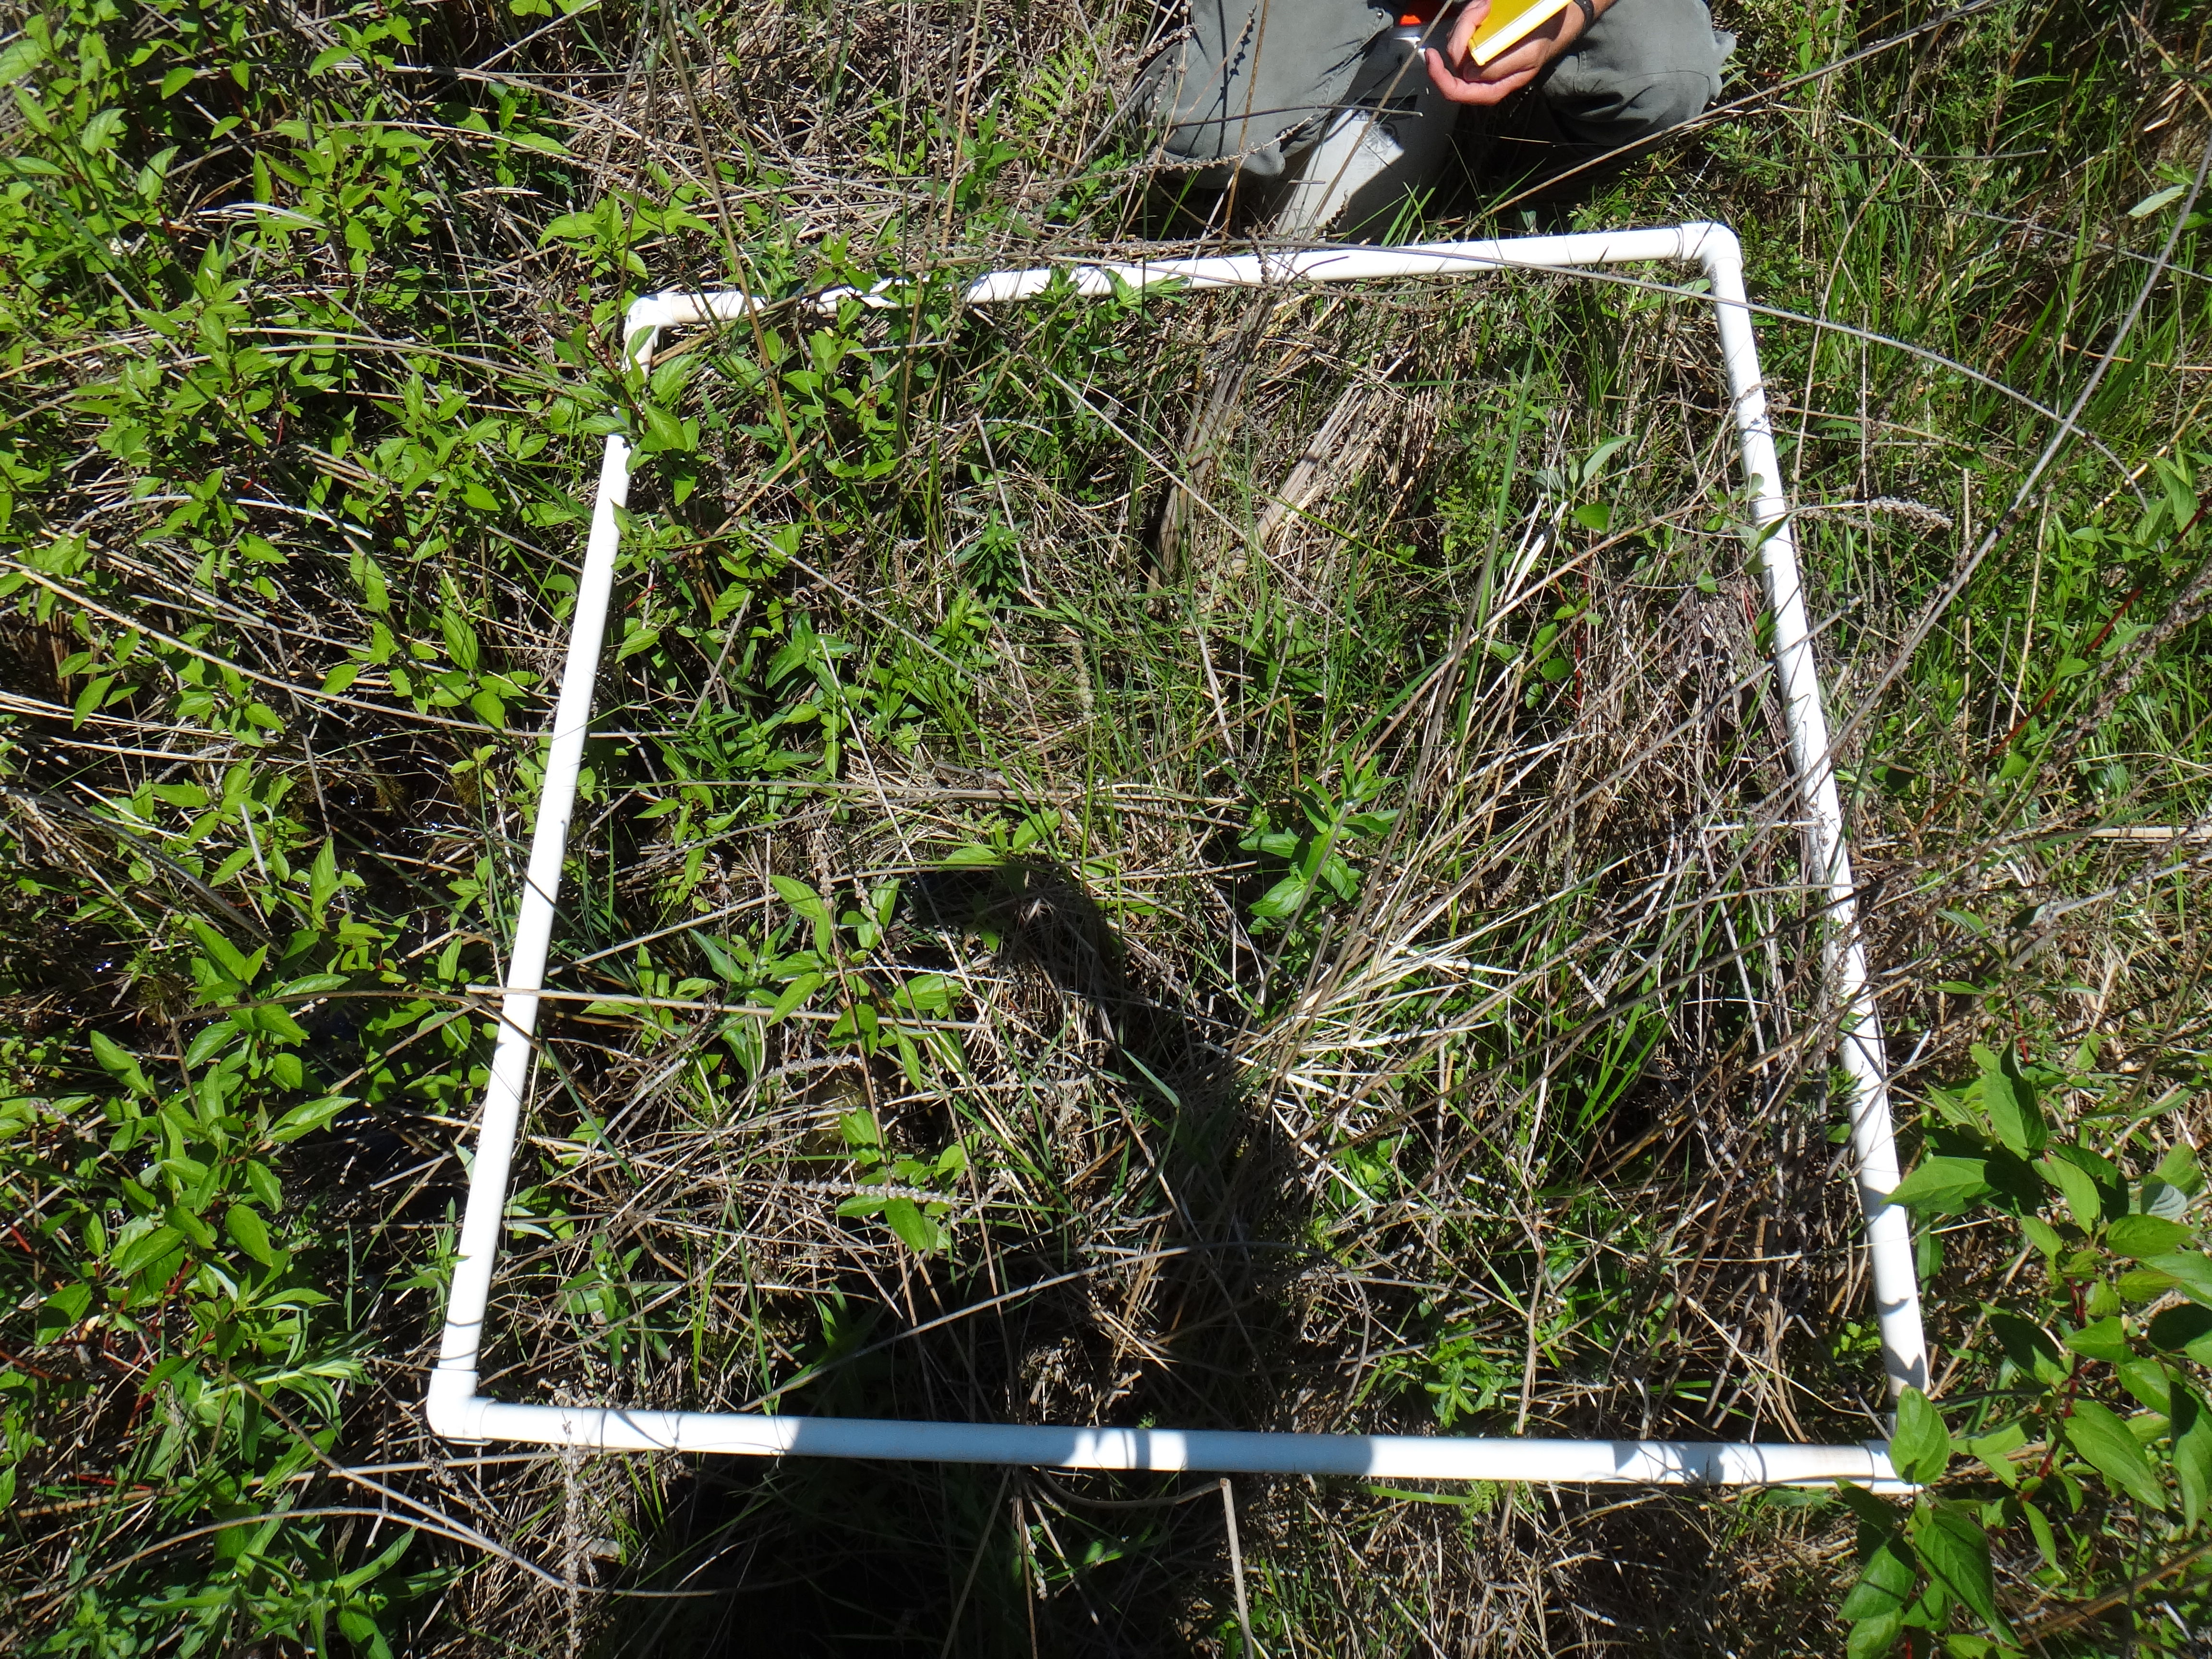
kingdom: Plantae
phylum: Tracheophyta
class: Magnoliopsida
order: Apiales
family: Apiaceae
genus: Oxypolis
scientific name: Oxypolis rigidior
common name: Cowbane
